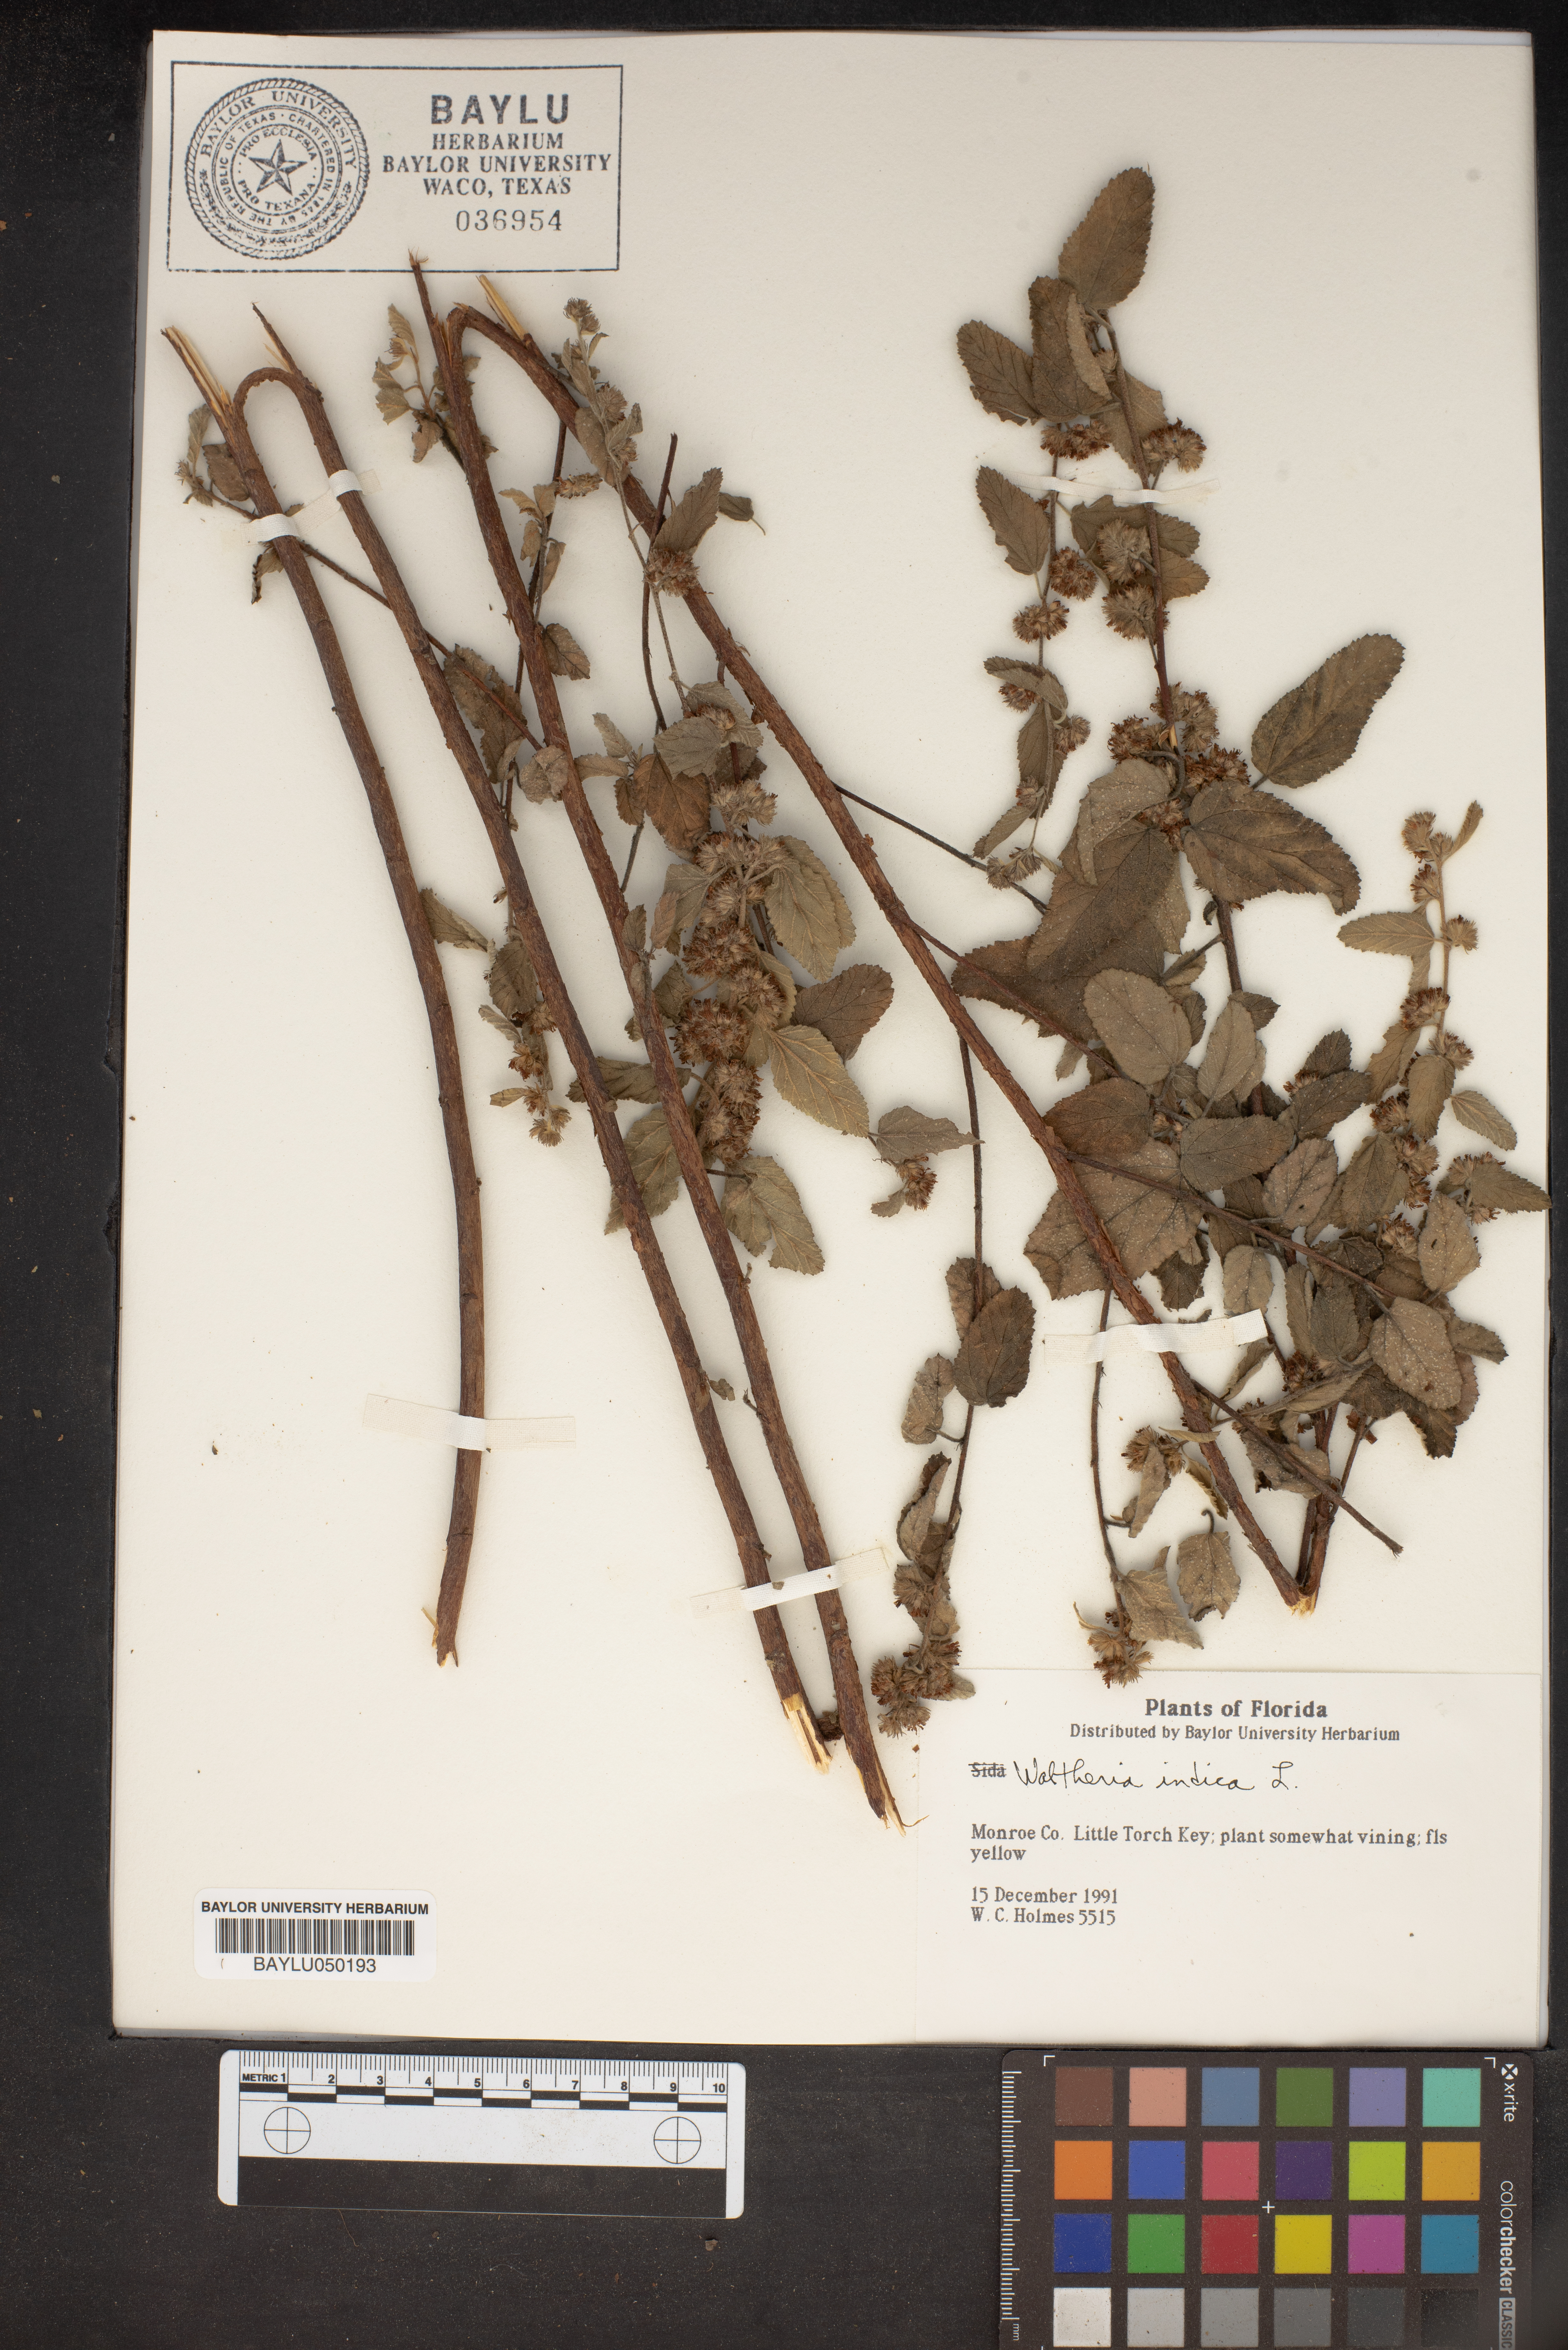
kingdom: Plantae
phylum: Tracheophyta
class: Magnoliopsida
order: Malvales
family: Malvaceae
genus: Waltheria
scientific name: Waltheria indica
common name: Leather-coat
